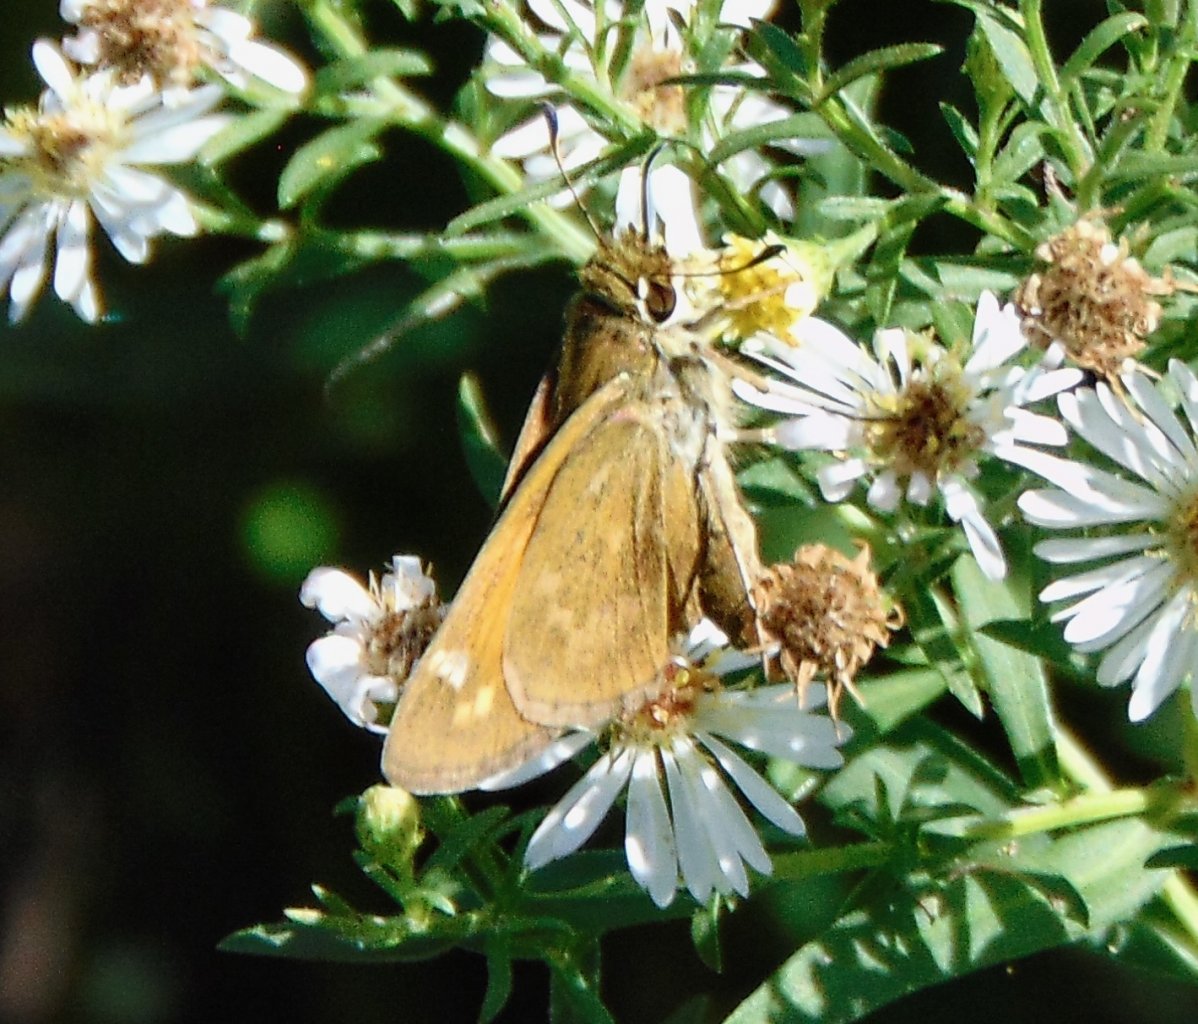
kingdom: Animalia
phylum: Arthropoda
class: Insecta
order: Lepidoptera
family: Hesperiidae
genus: Atalopedes
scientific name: Atalopedes campestris
